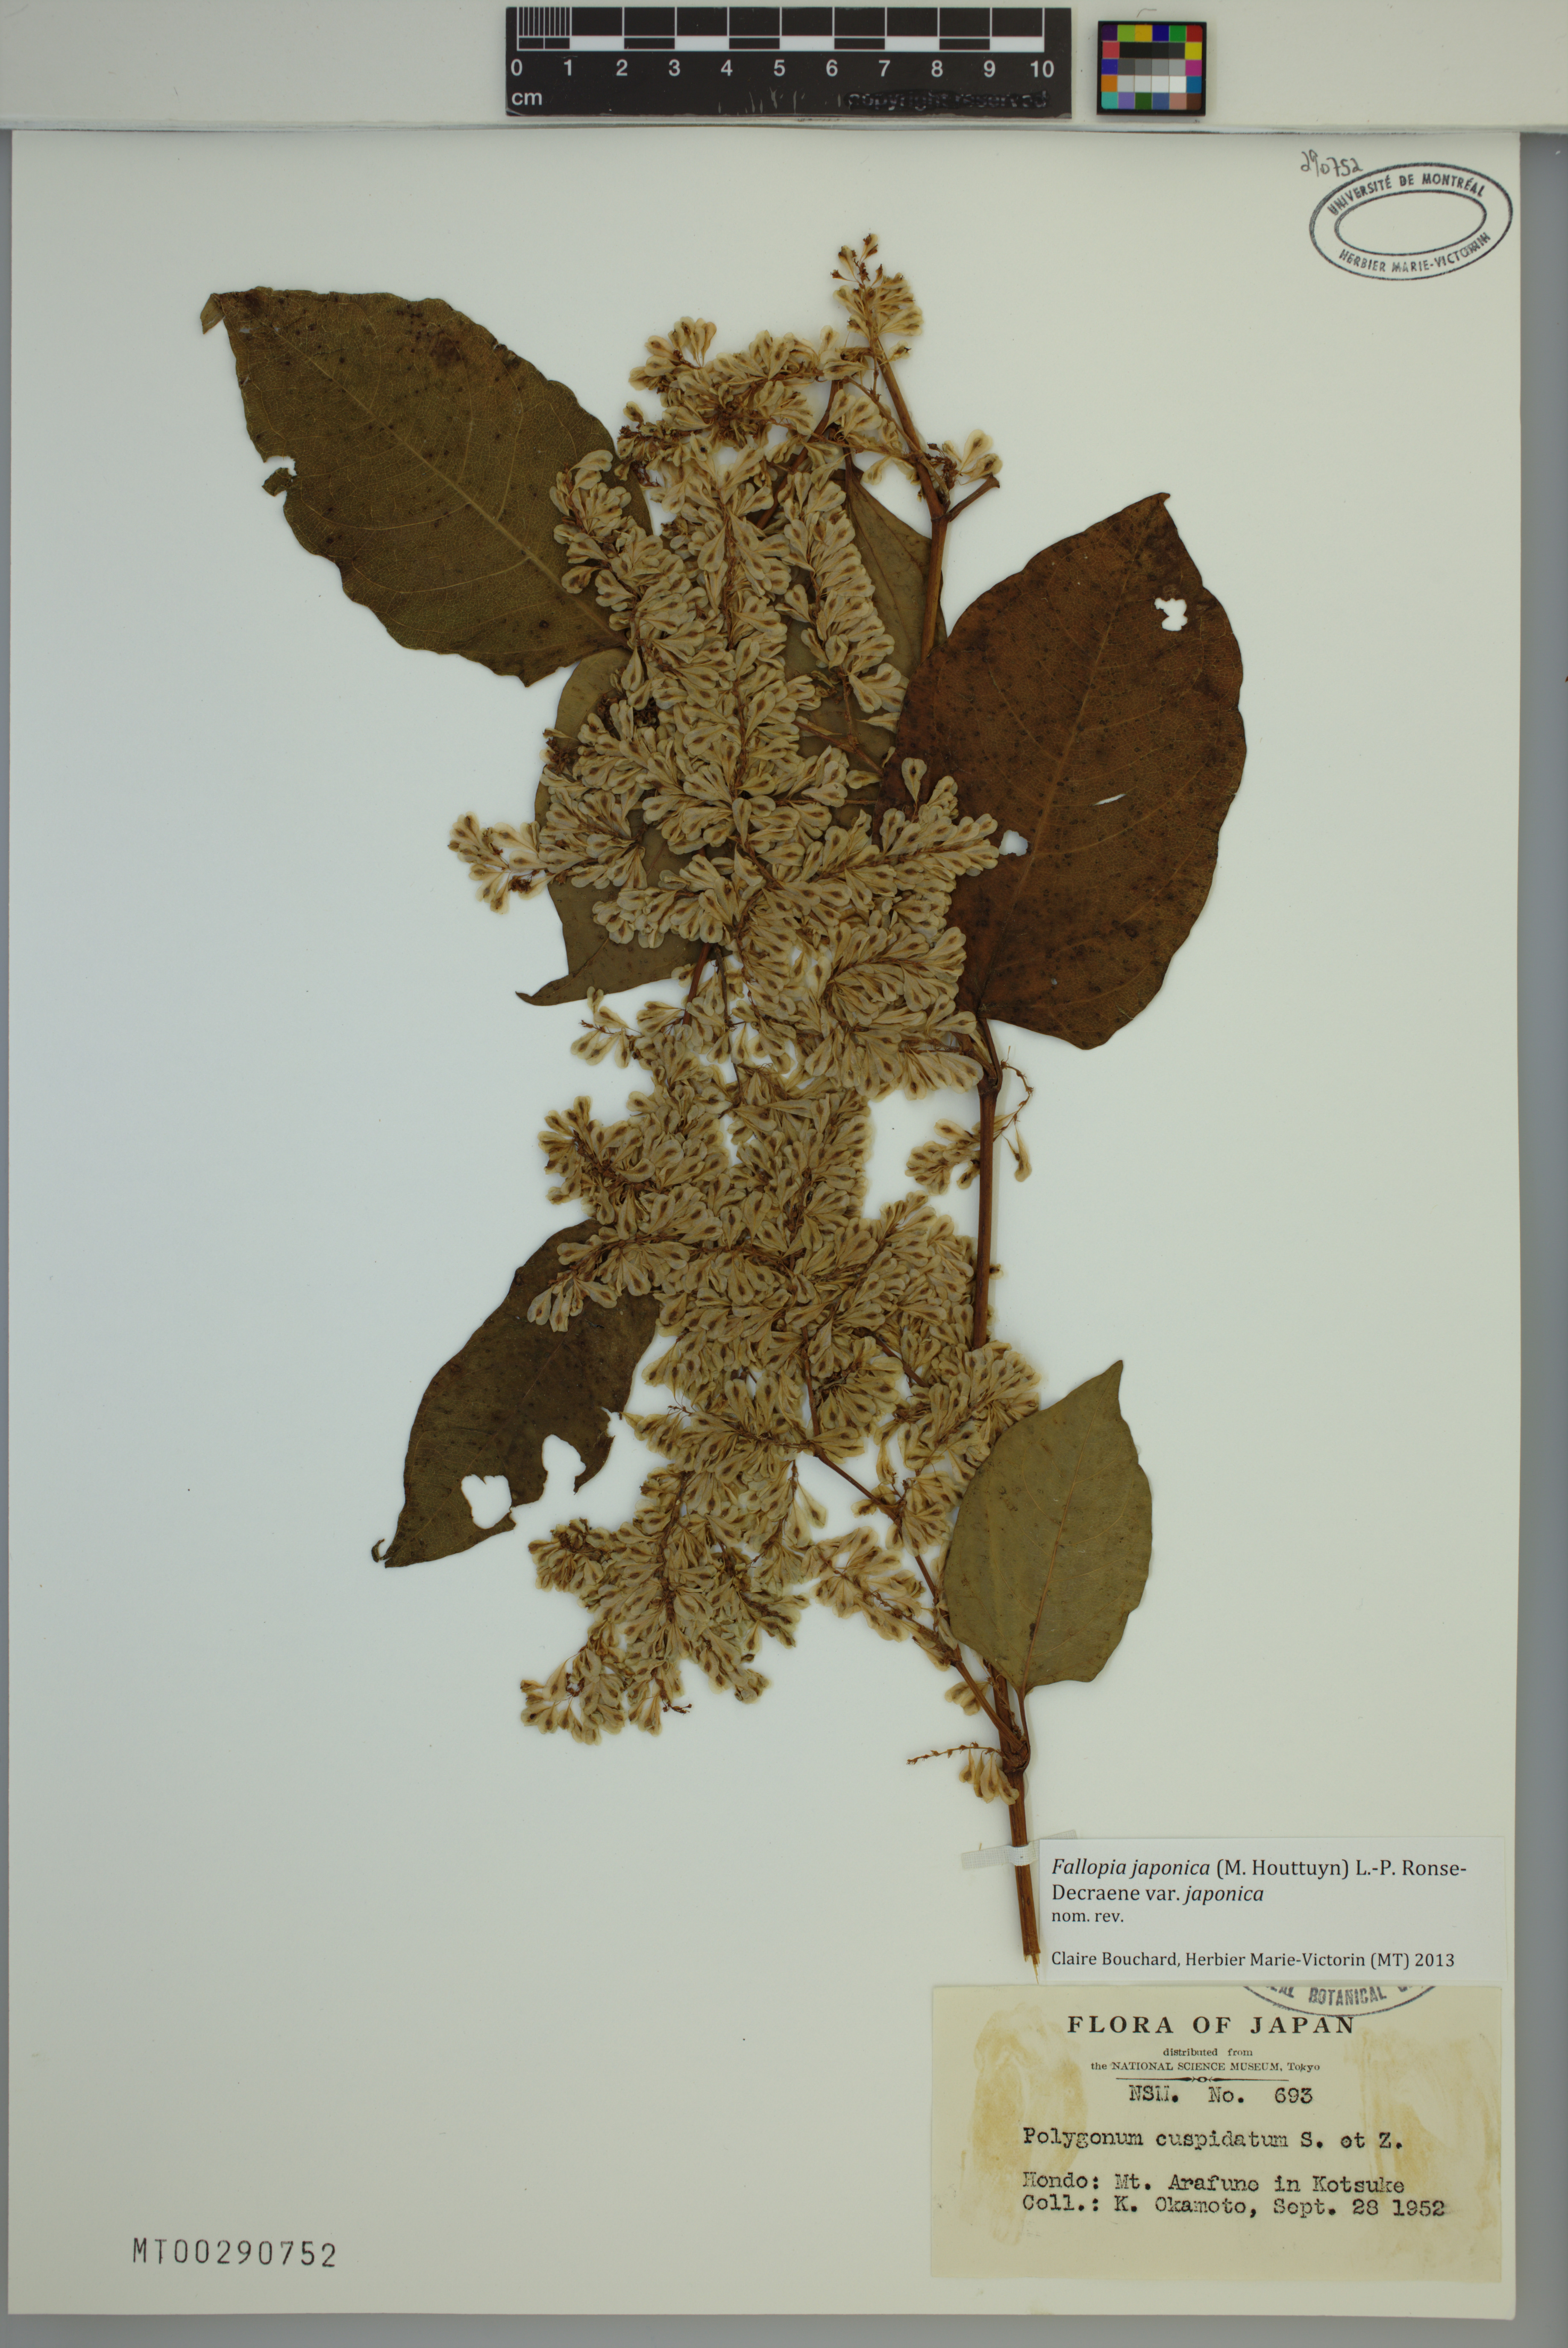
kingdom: Plantae
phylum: Tracheophyta
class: Magnoliopsida
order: Caryophyllales
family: Polygonaceae
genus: Reynoutria
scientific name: Reynoutria japonica
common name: Japanese knotweed
